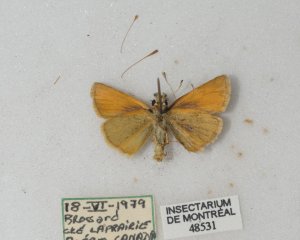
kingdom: Animalia
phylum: Arthropoda
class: Insecta
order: Lepidoptera
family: Hesperiidae
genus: Thymelicus
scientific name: Thymelicus lineola
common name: European Skipper
